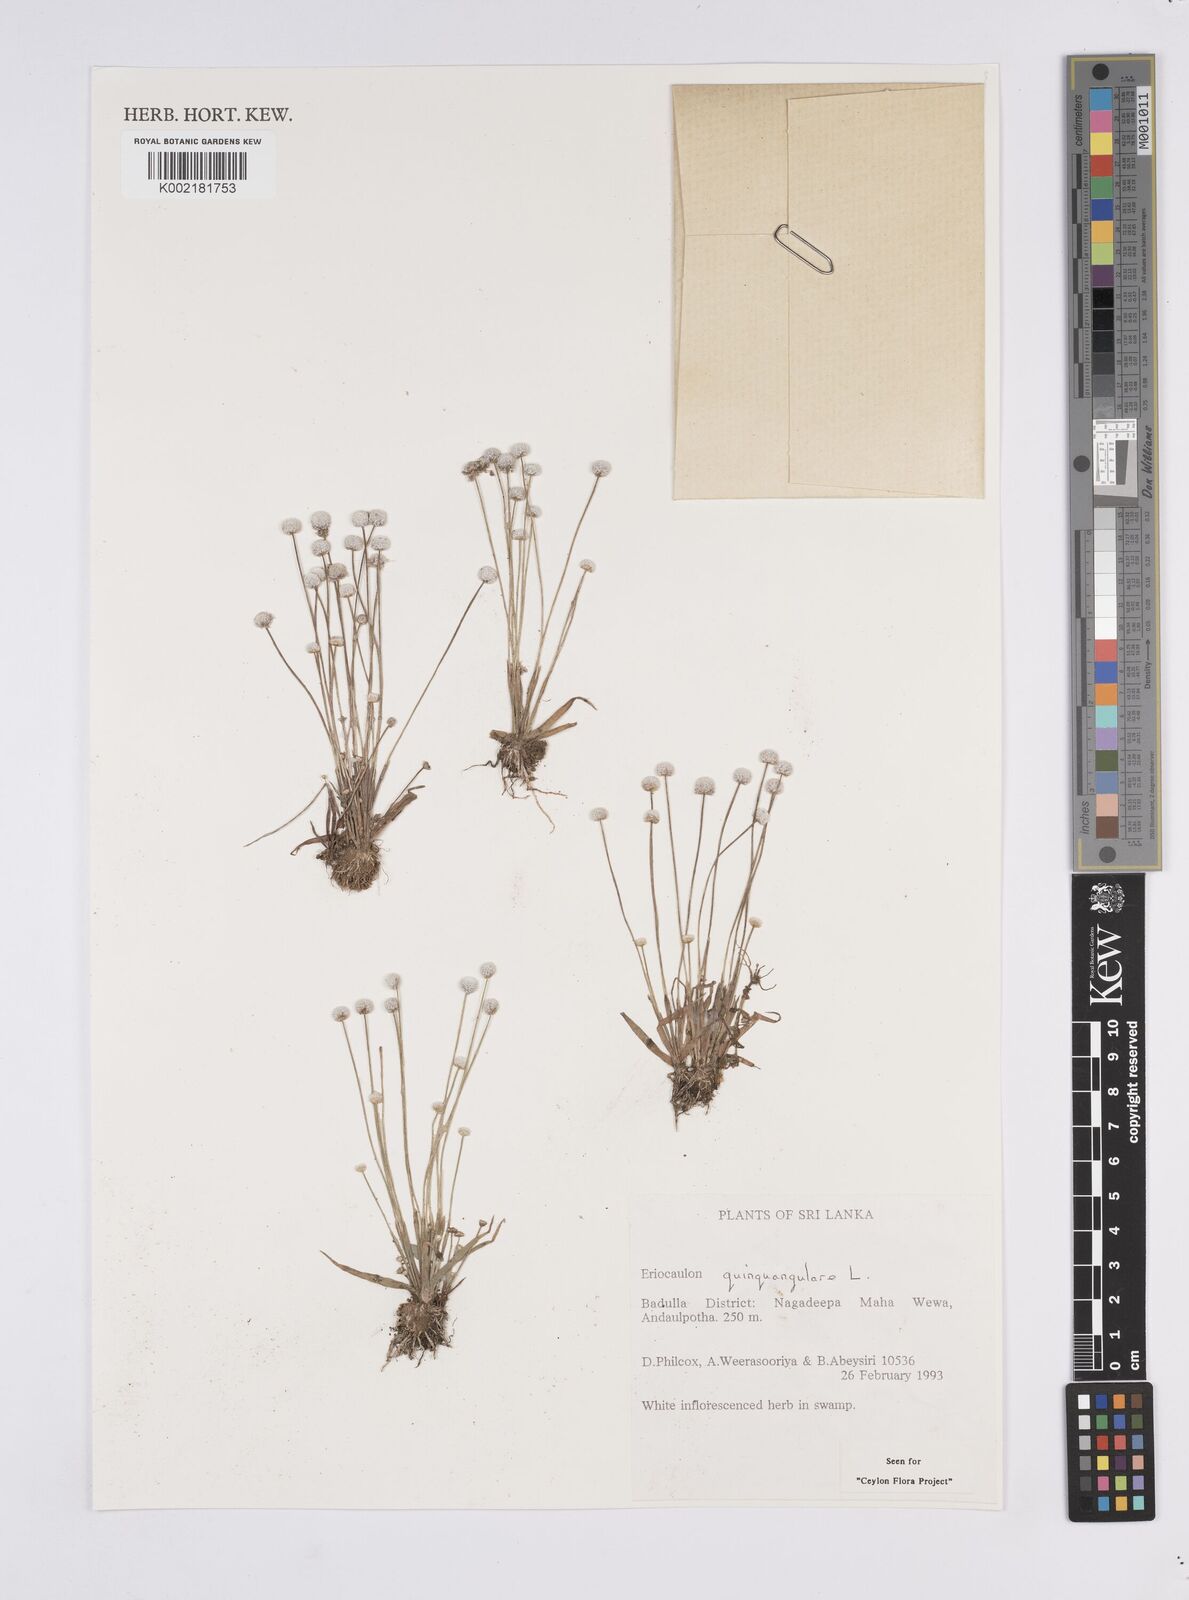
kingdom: Plantae
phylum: Tracheophyta
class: Liliopsida
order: Poales
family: Eriocaulaceae
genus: Eriocaulon
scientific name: Eriocaulon quinquangulare
